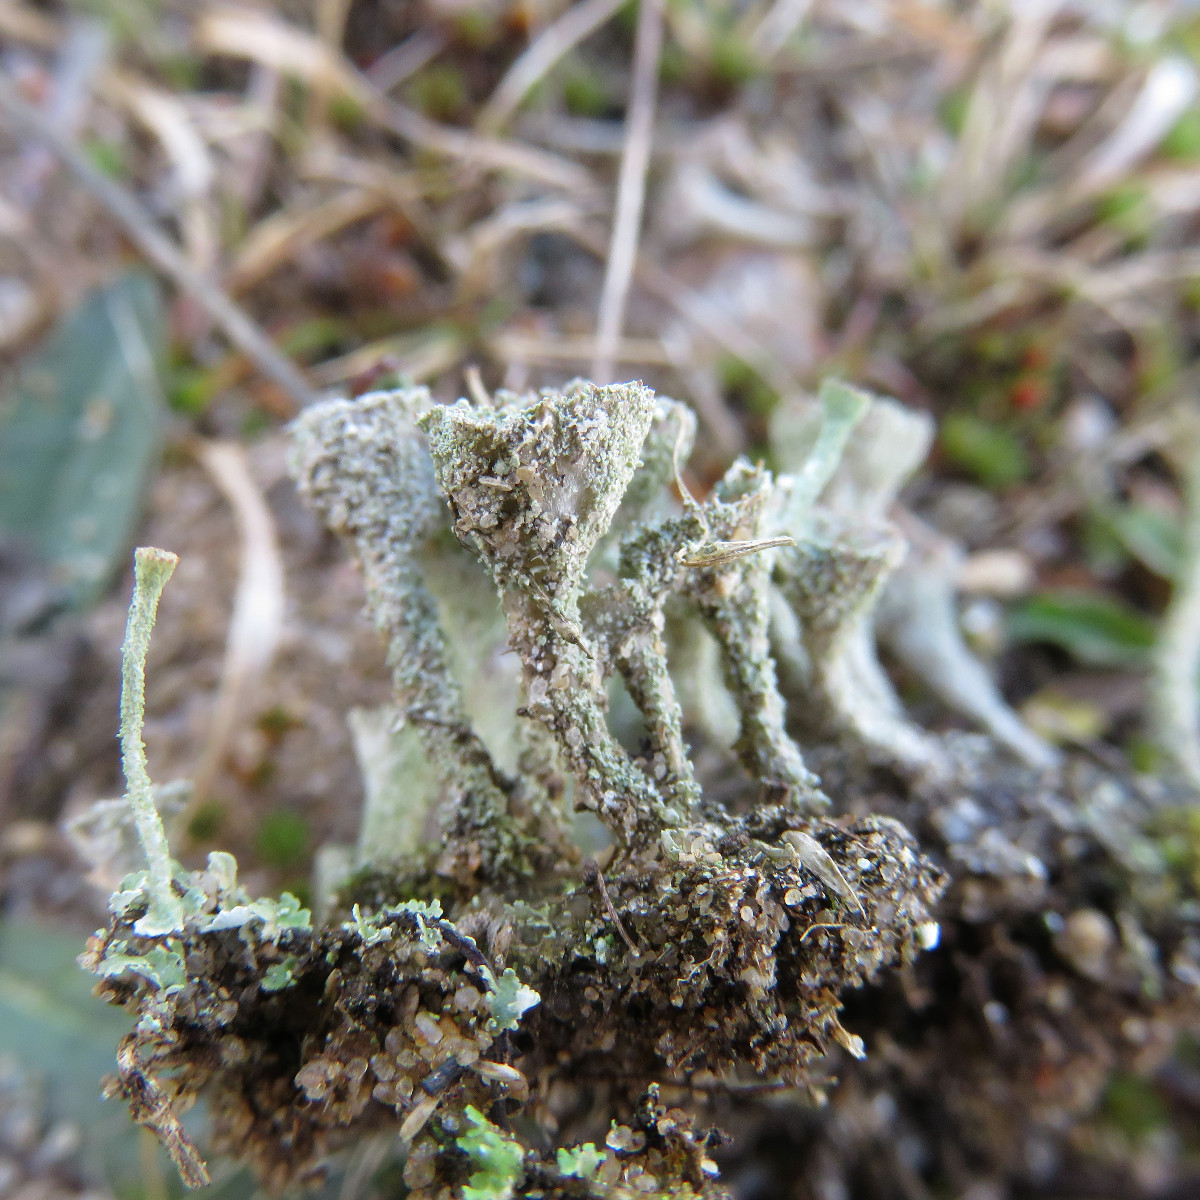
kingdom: Fungi
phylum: Ascomycota
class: Lecanoromycetes
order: Lecanorales
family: Cladoniaceae
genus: Cladonia
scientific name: Cladonia
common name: brungrøn bægerlav
